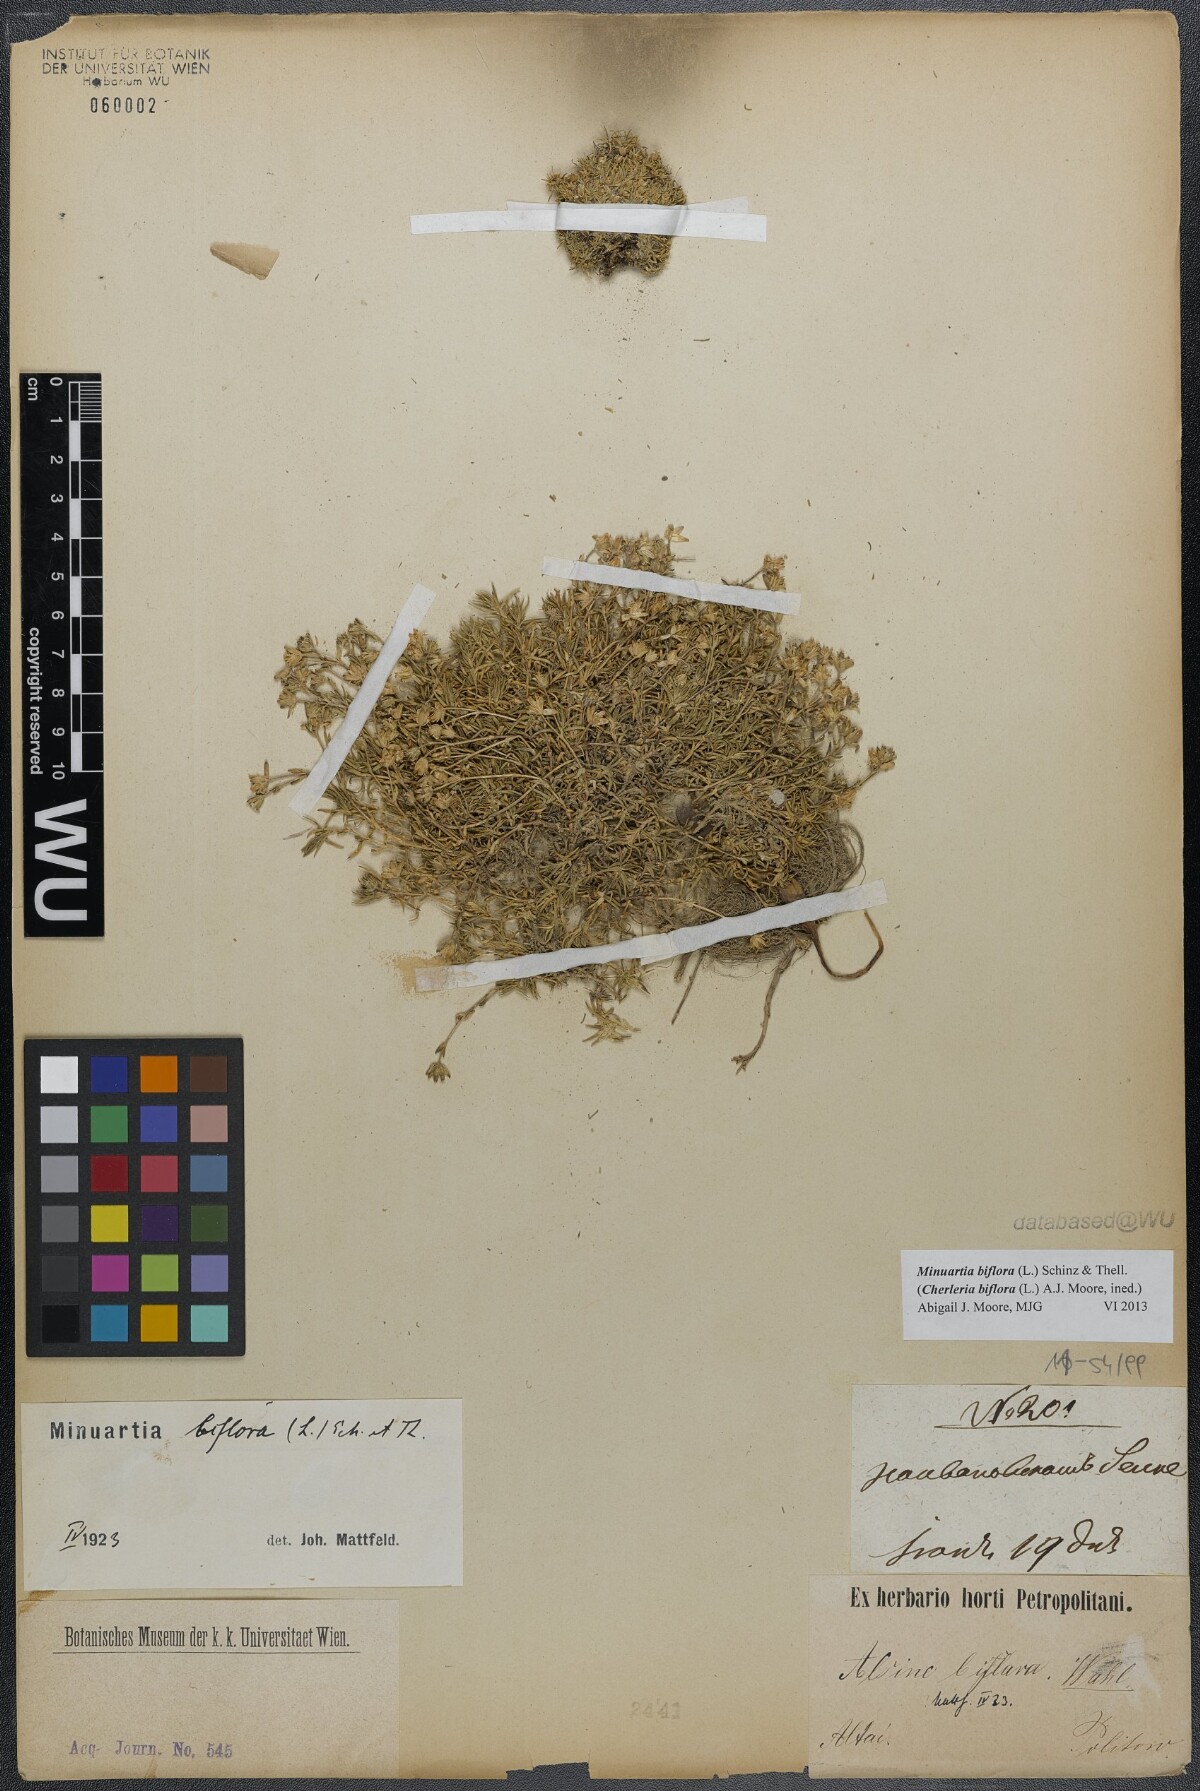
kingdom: Plantae
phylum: Tracheophyta
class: Magnoliopsida
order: Caryophyllales
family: Caryophyllaceae
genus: Cherleria
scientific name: Cherleria biflora
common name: Mountain sandwort
